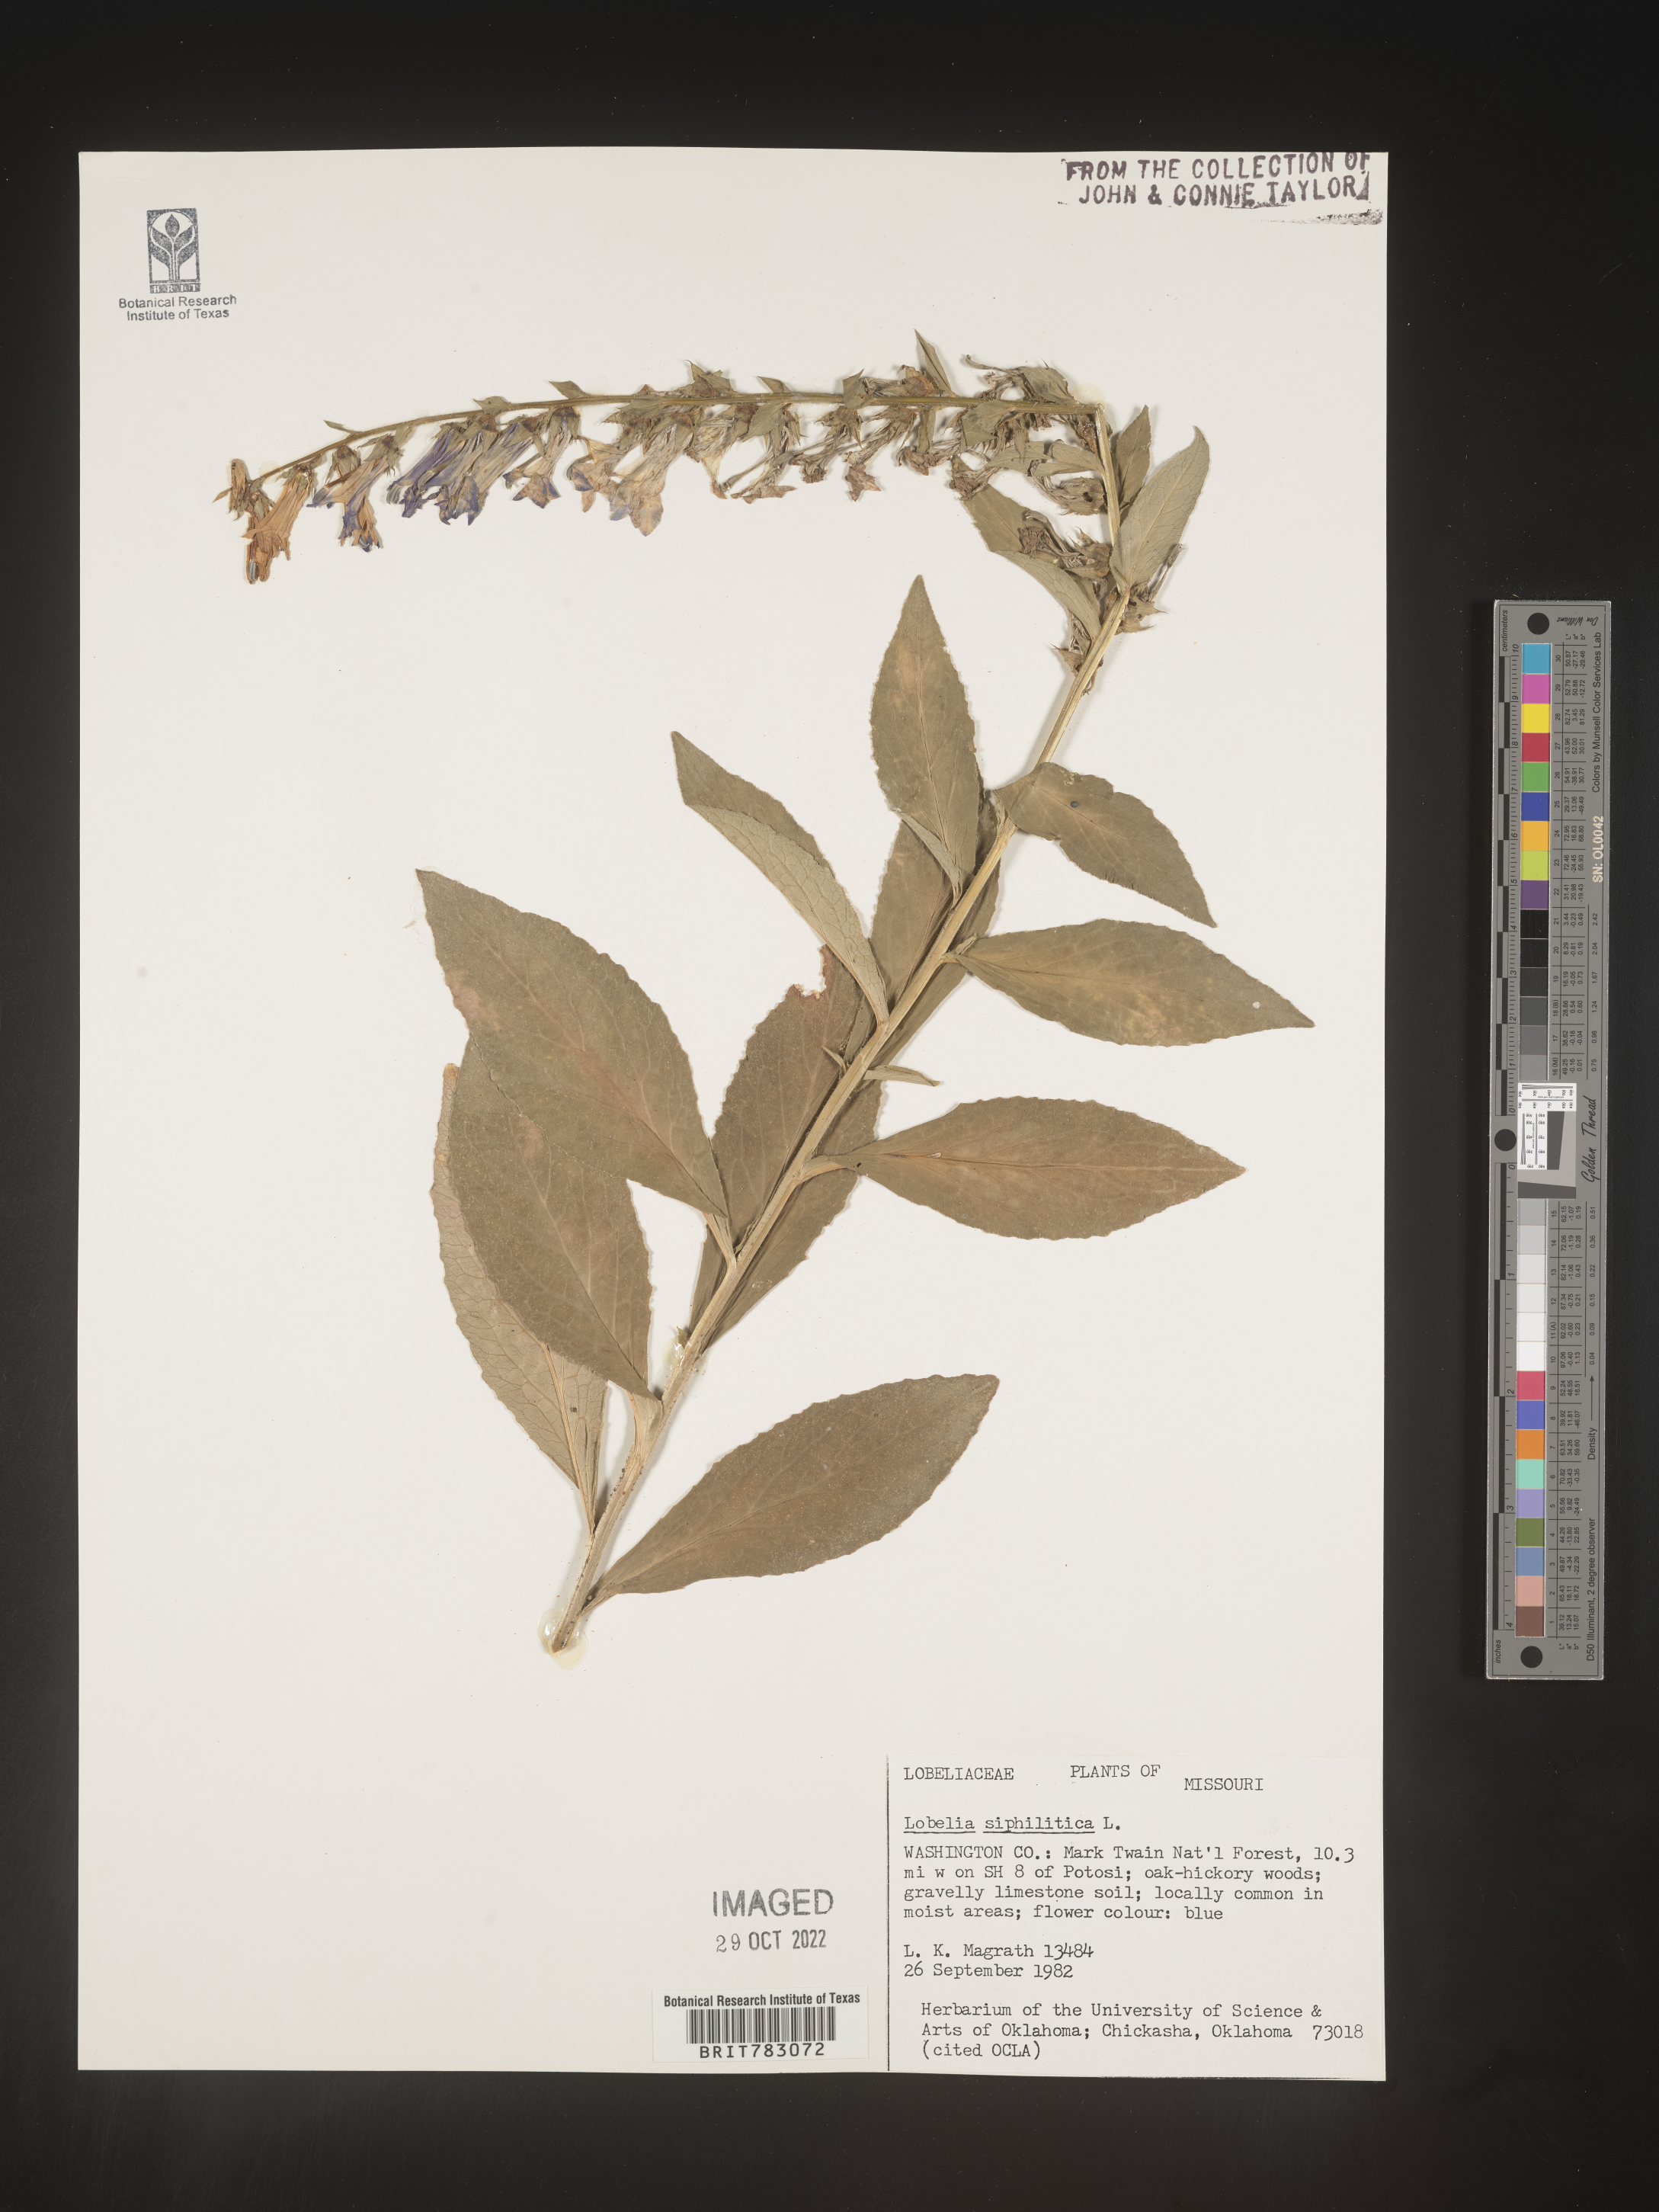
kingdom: Plantae
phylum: Tracheophyta
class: Magnoliopsida
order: Asterales
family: Campanulaceae
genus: Lobelia
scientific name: Lobelia siphilitica
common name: Great lobelia
